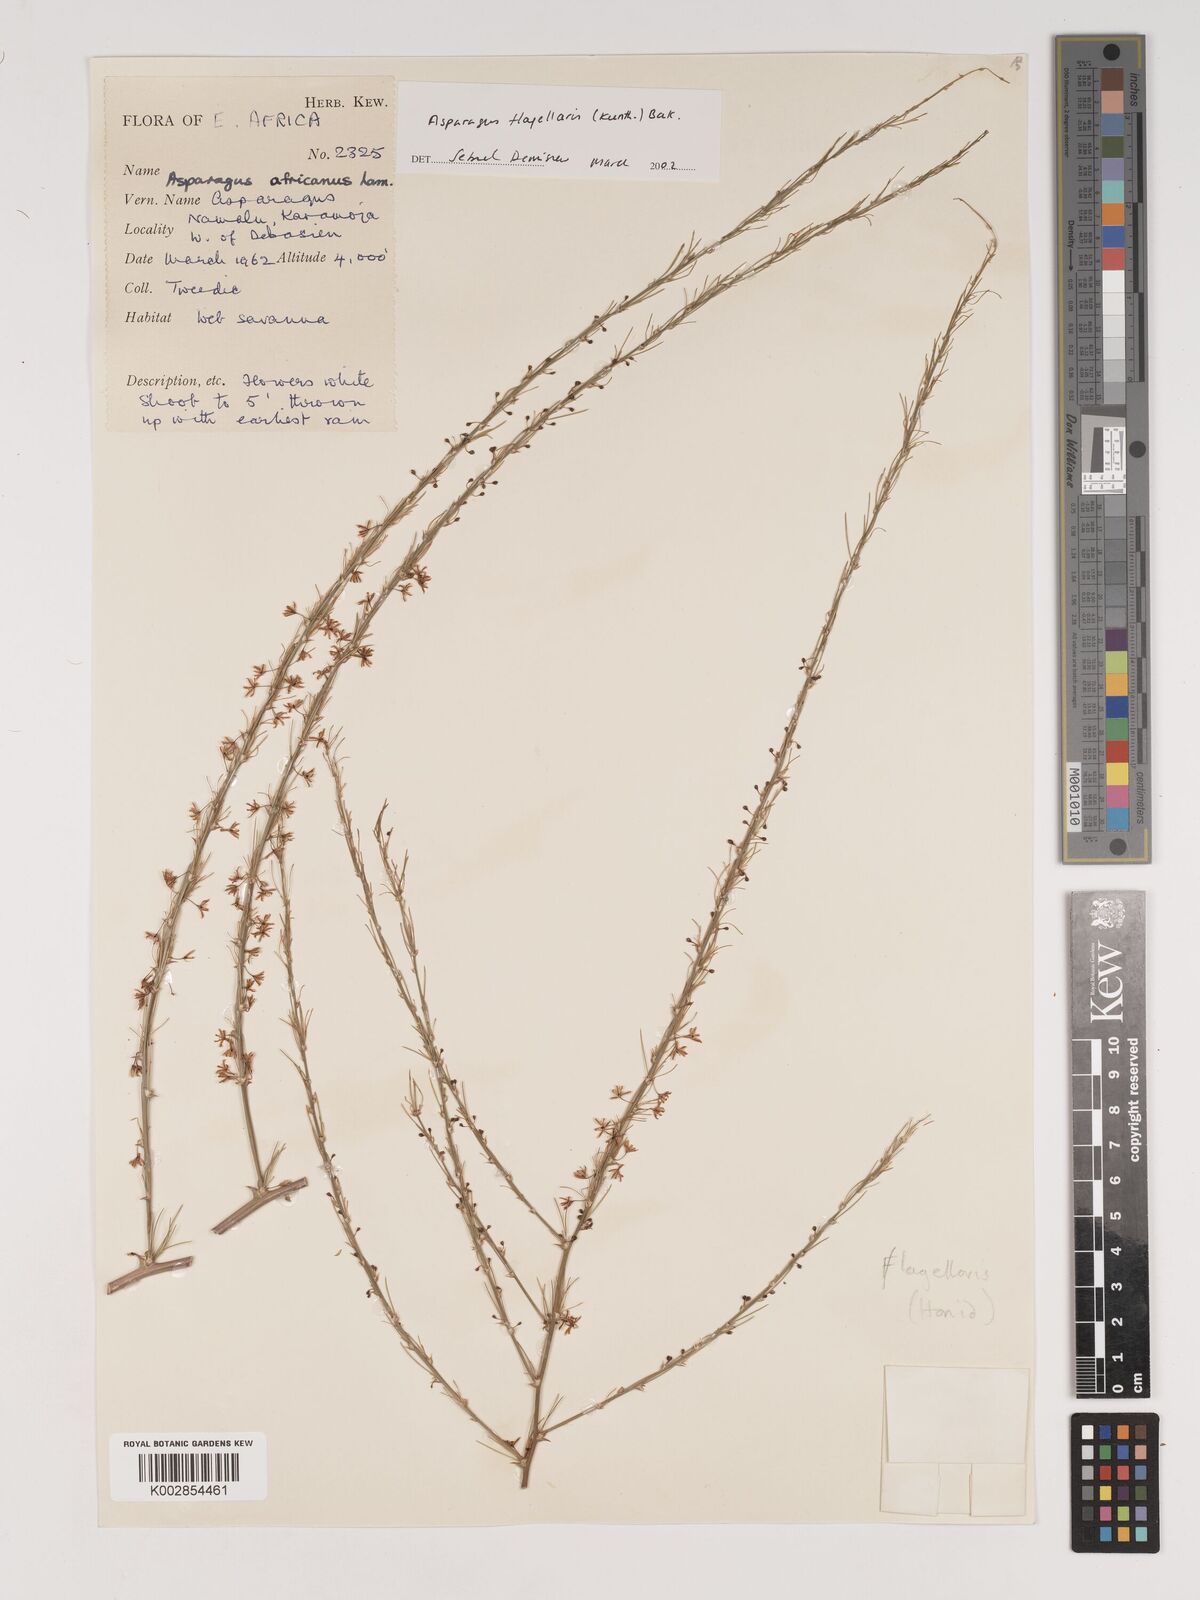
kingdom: Plantae
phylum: Tracheophyta
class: Liliopsida
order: Asparagales
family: Asparagaceae
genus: Asparagus
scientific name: Asparagus flagellaris
